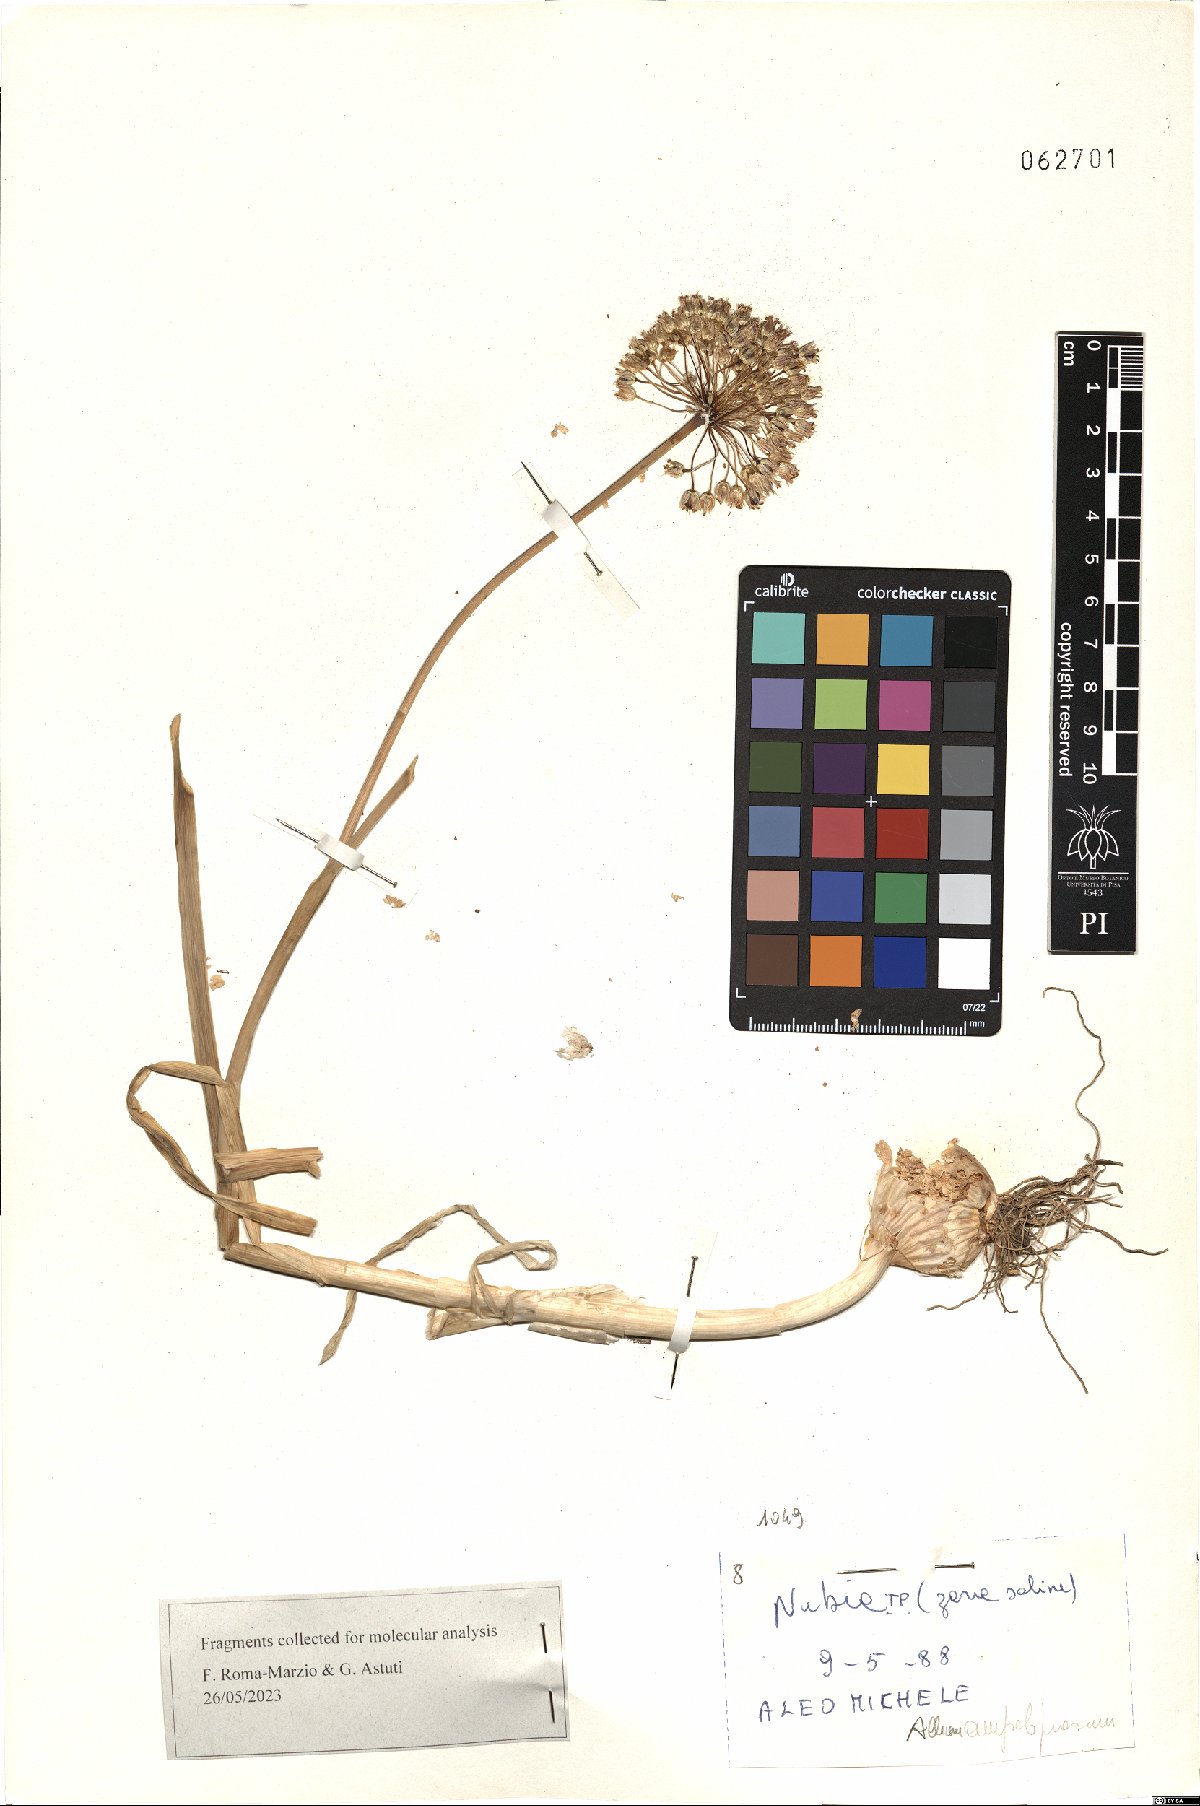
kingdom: Plantae
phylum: Tracheophyta
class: Liliopsida
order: Asparagales
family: Amaryllidaceae
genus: Allium
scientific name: Allium ampeloprasum
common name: Wild leek
